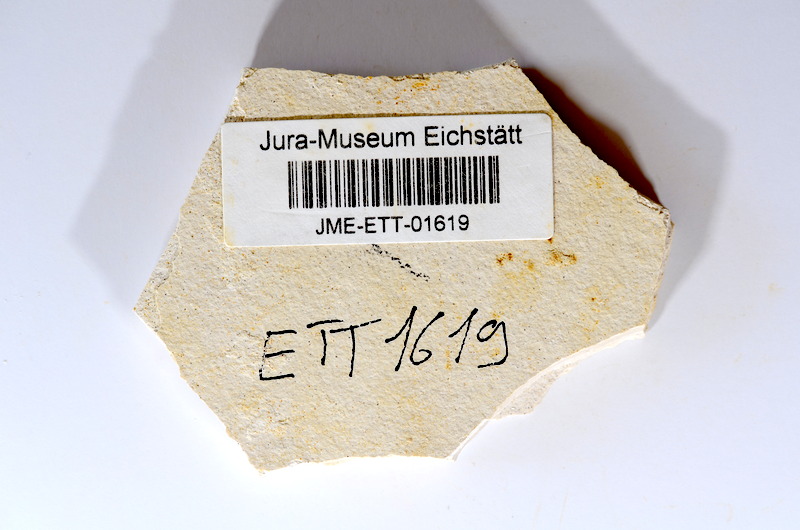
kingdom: Animalia
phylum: Chordata
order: Salmoniformes
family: Orthogonikleithridae
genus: Orthogonikleithrus
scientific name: Orthogonikleithrus hoelli
